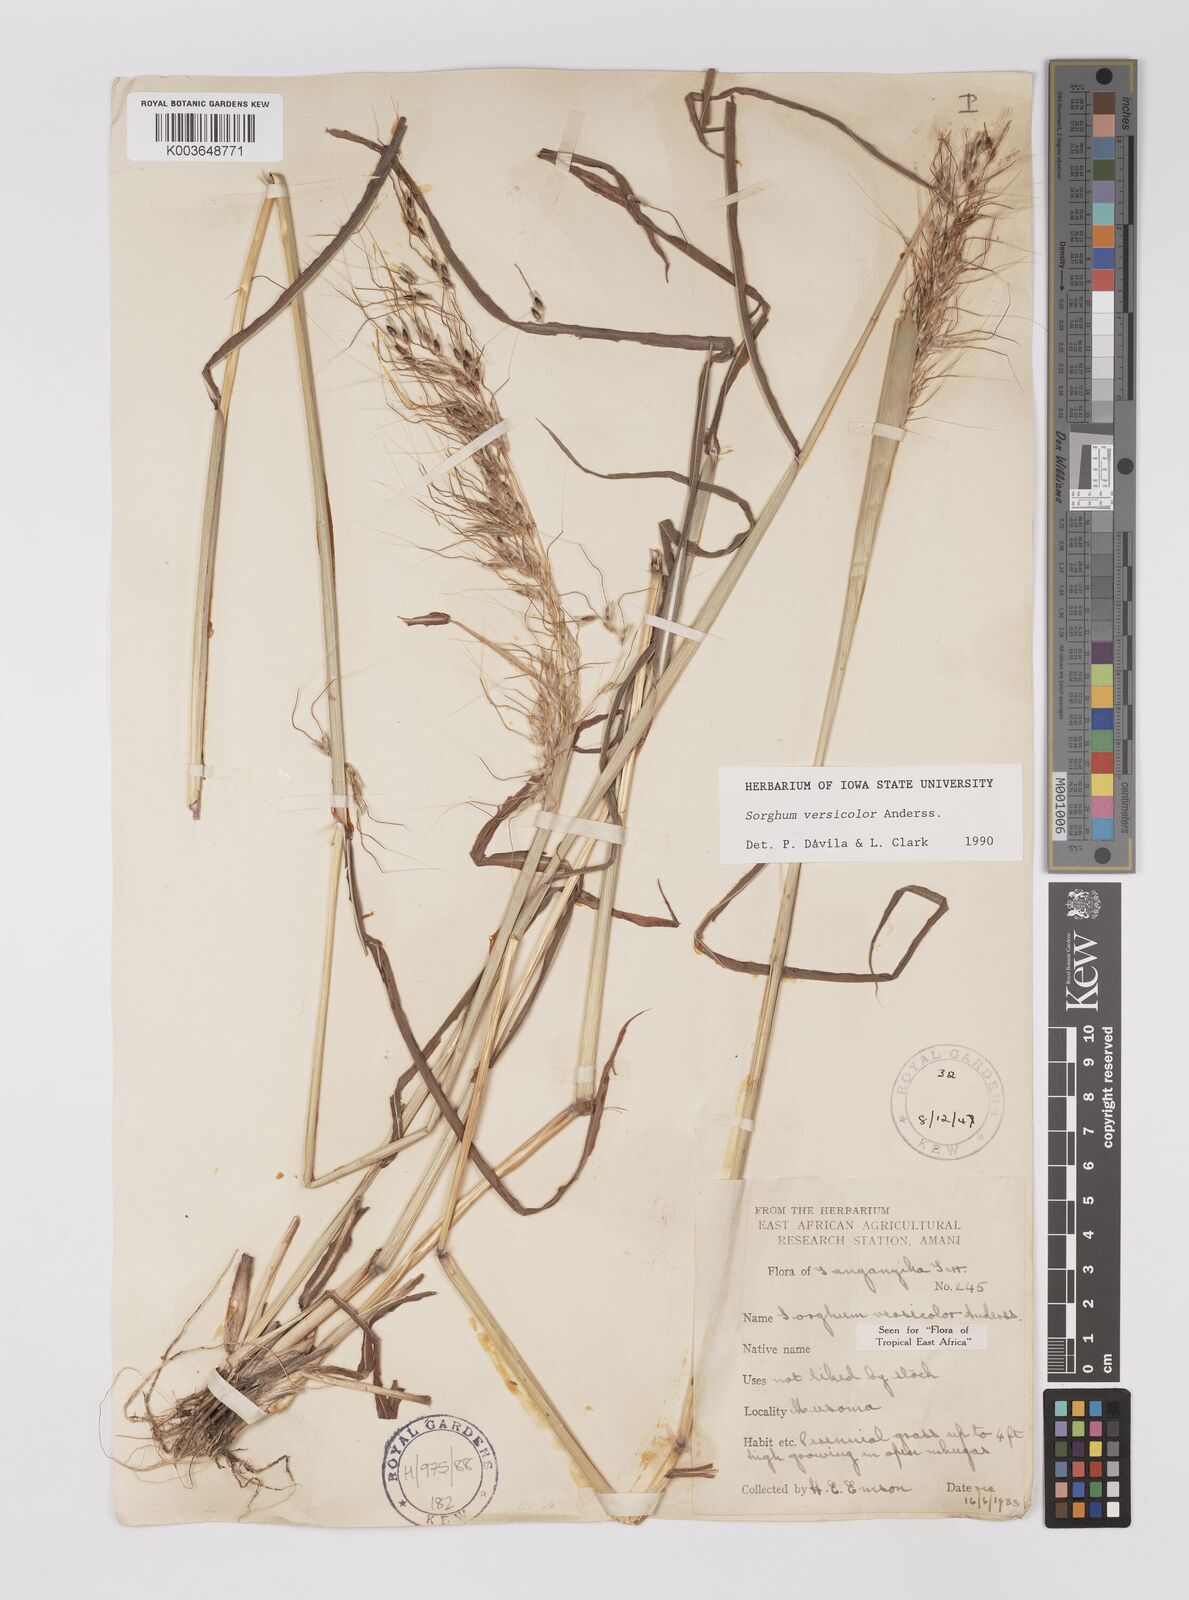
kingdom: Plantae
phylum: Tracheophyta
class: Liliopsida
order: Poales
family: Poaceae
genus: Sarga
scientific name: Sarga versicolor
